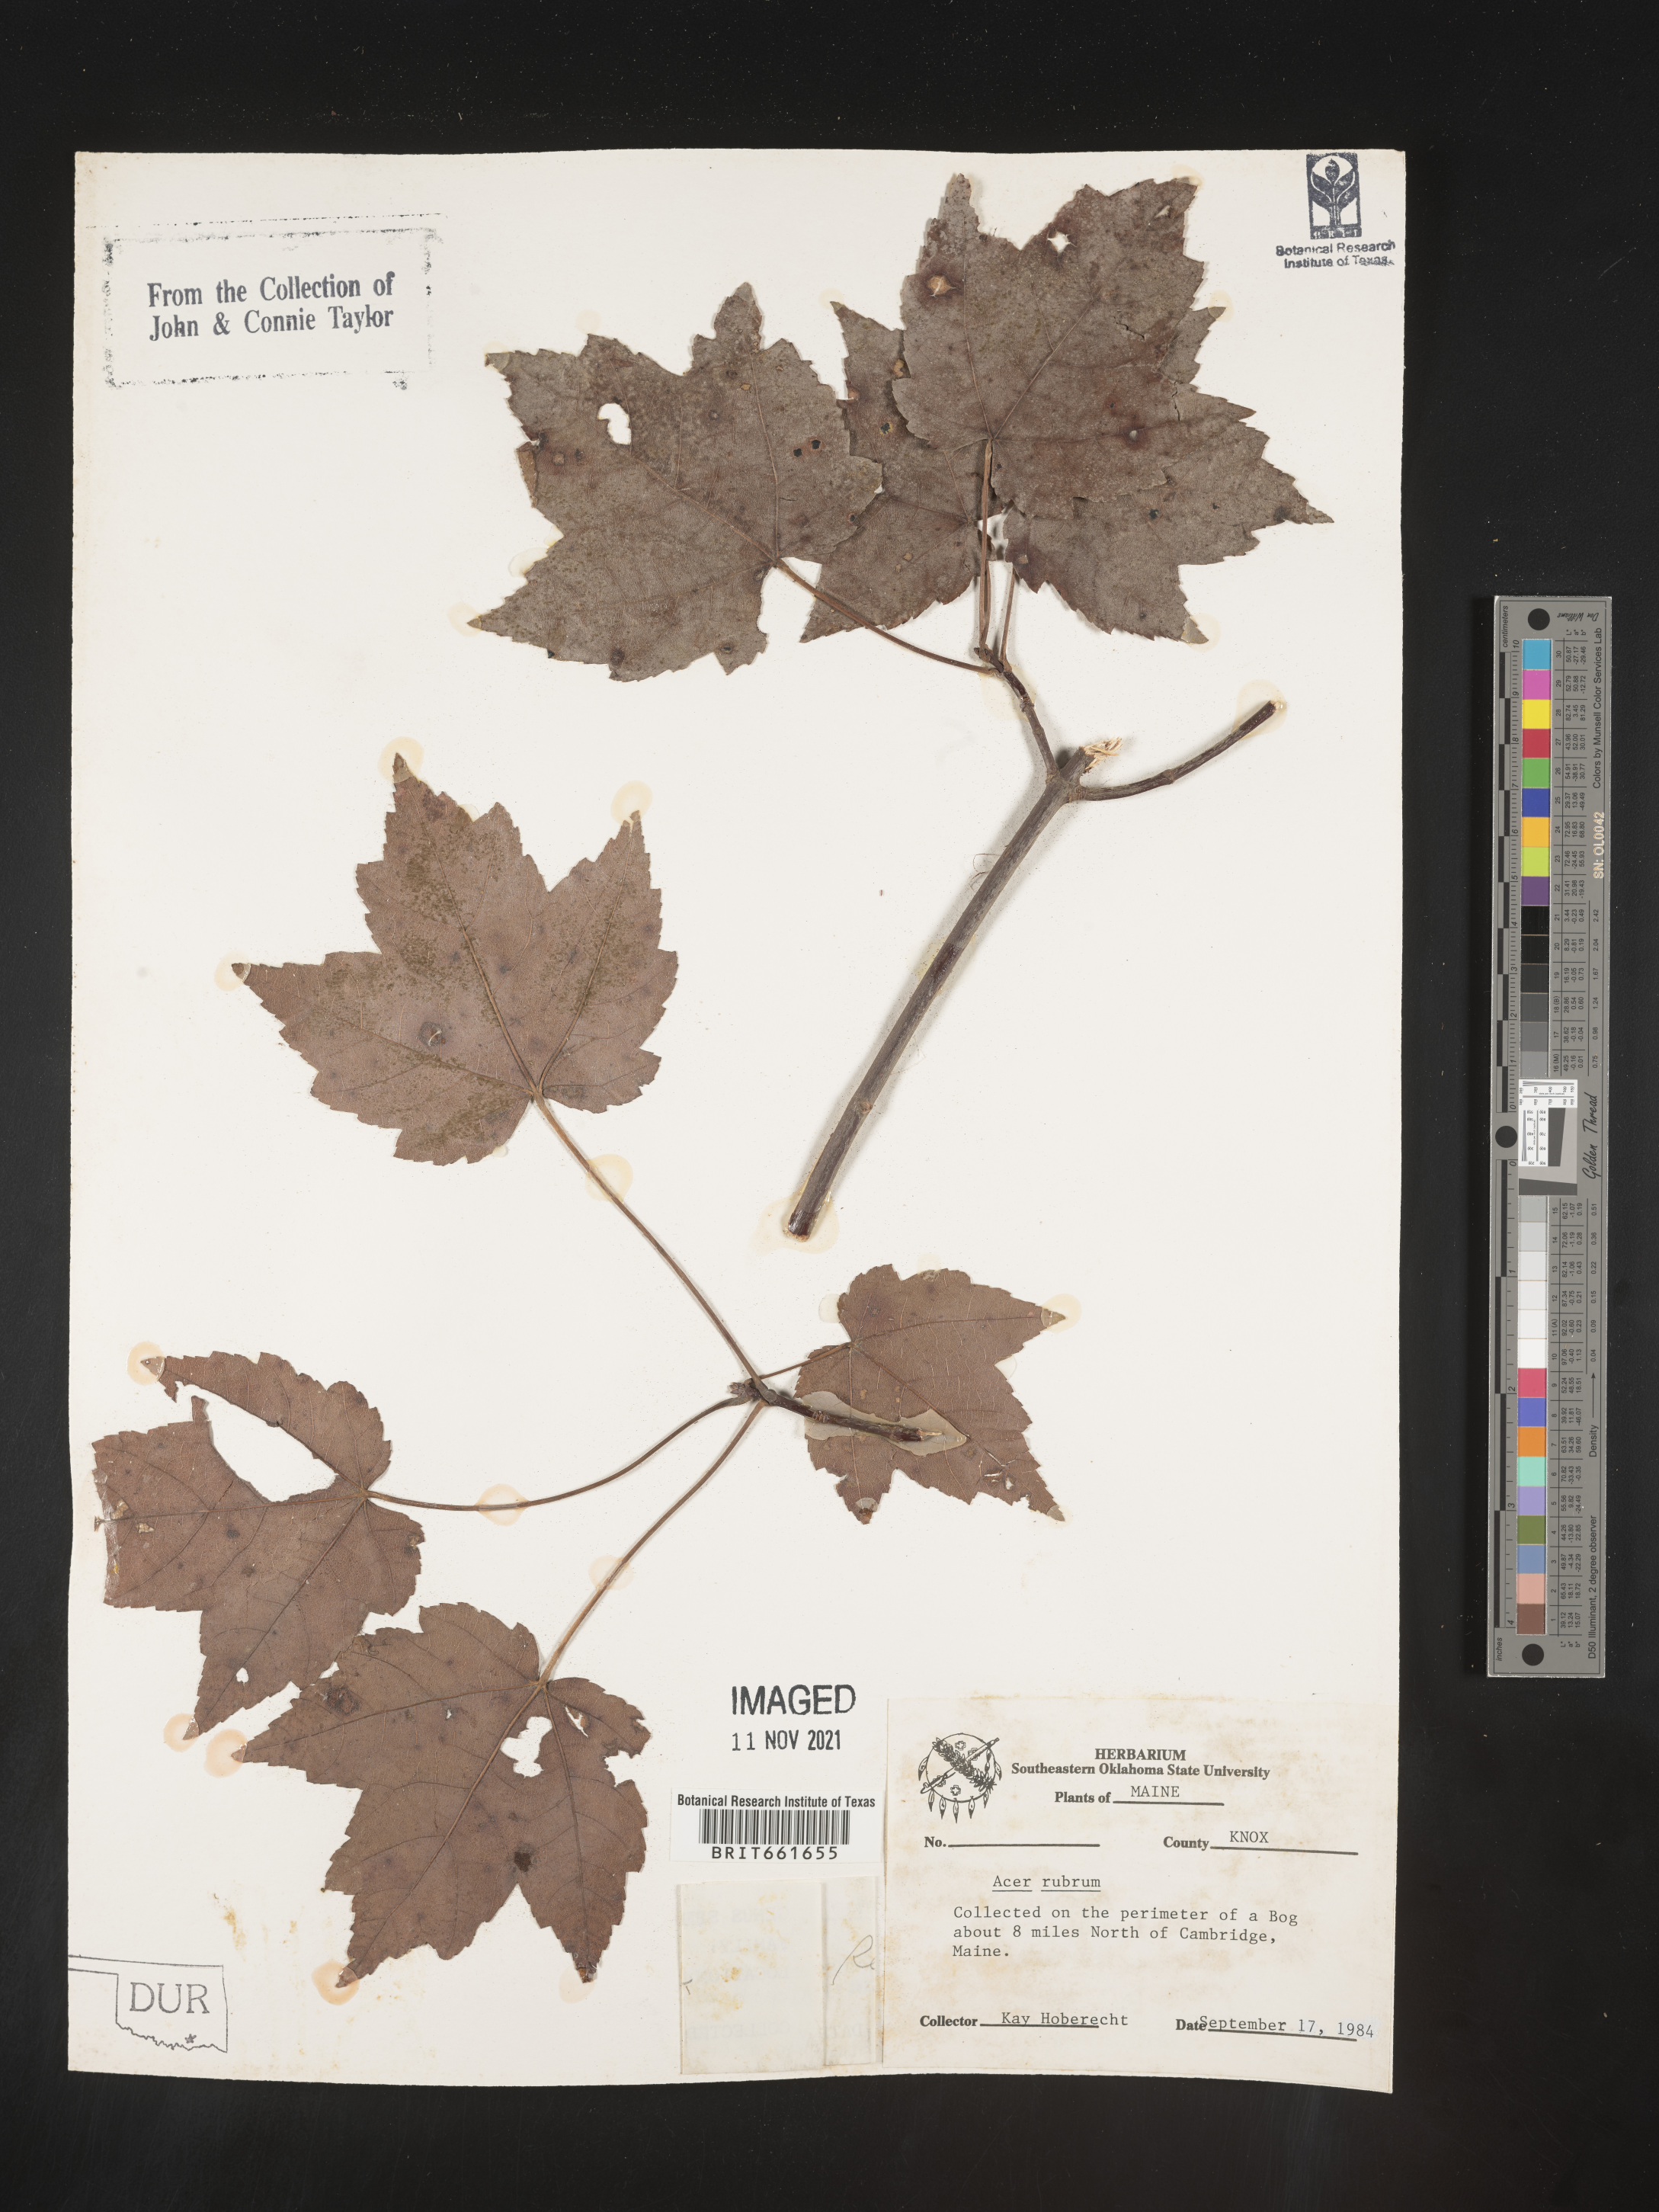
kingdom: Plantae
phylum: Tracheophyta
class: Magnoliopsida
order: Sapindales
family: Sapindaceae
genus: Acer
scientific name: Acer rubrum
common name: Red maple
